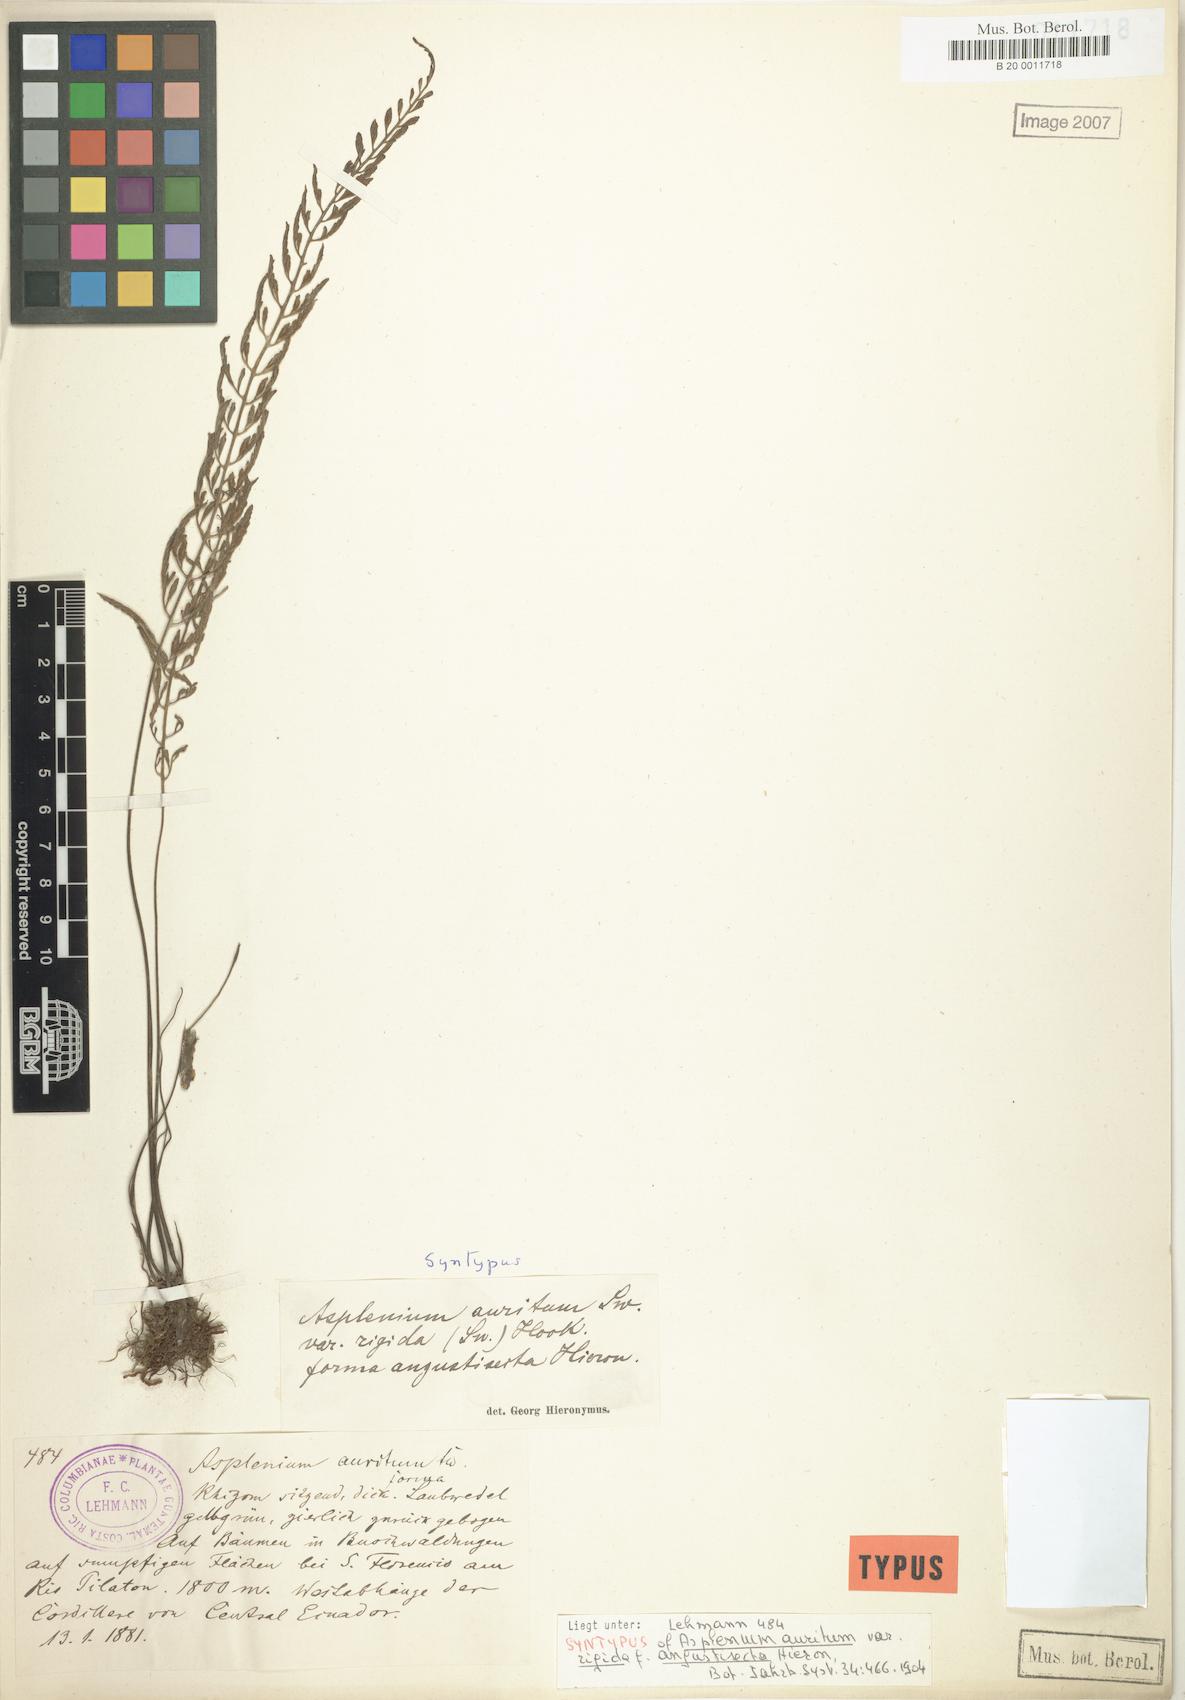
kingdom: Plantae
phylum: Tracheophyta
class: Polypodiopsida
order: Polypodiales
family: Aspleniaceae
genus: Asplenium
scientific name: Asplenium auritum
